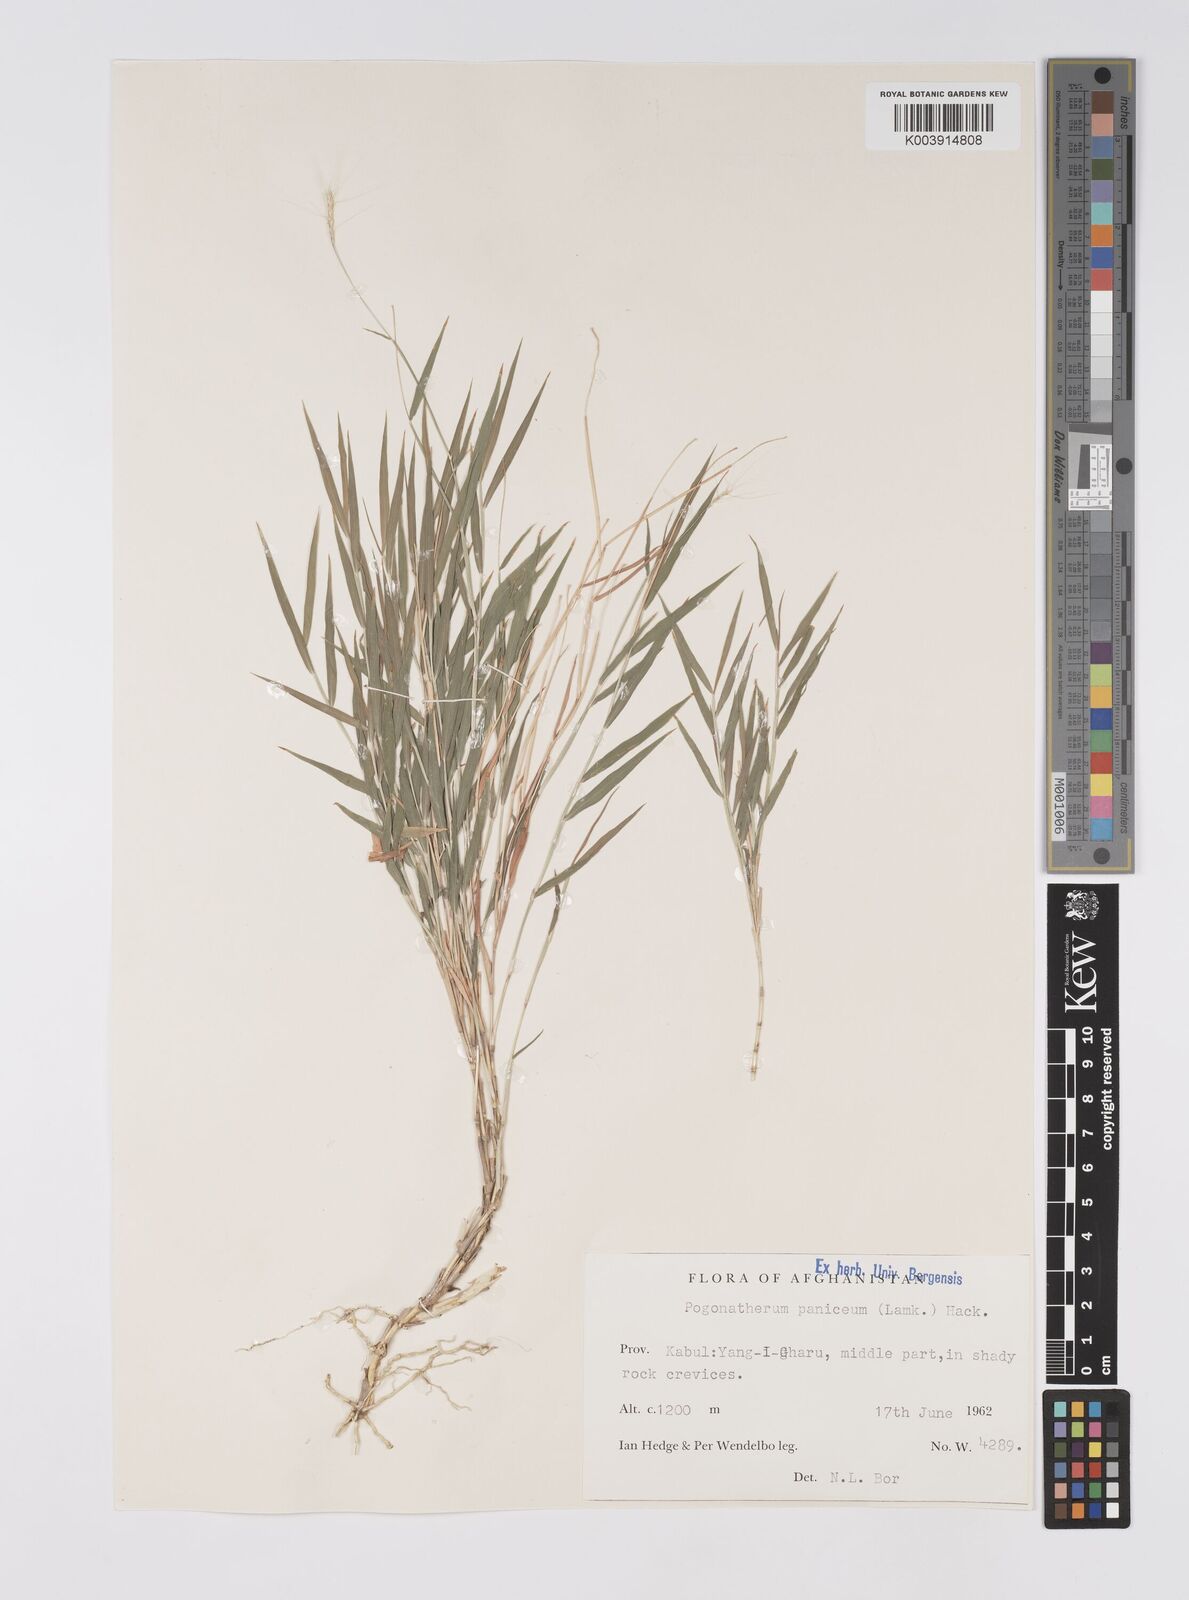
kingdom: Plantae
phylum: Tracheophyta
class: Liliopsida
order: Poales
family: Poaceae
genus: Pogonatherum
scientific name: Pogonatherum paniceum
